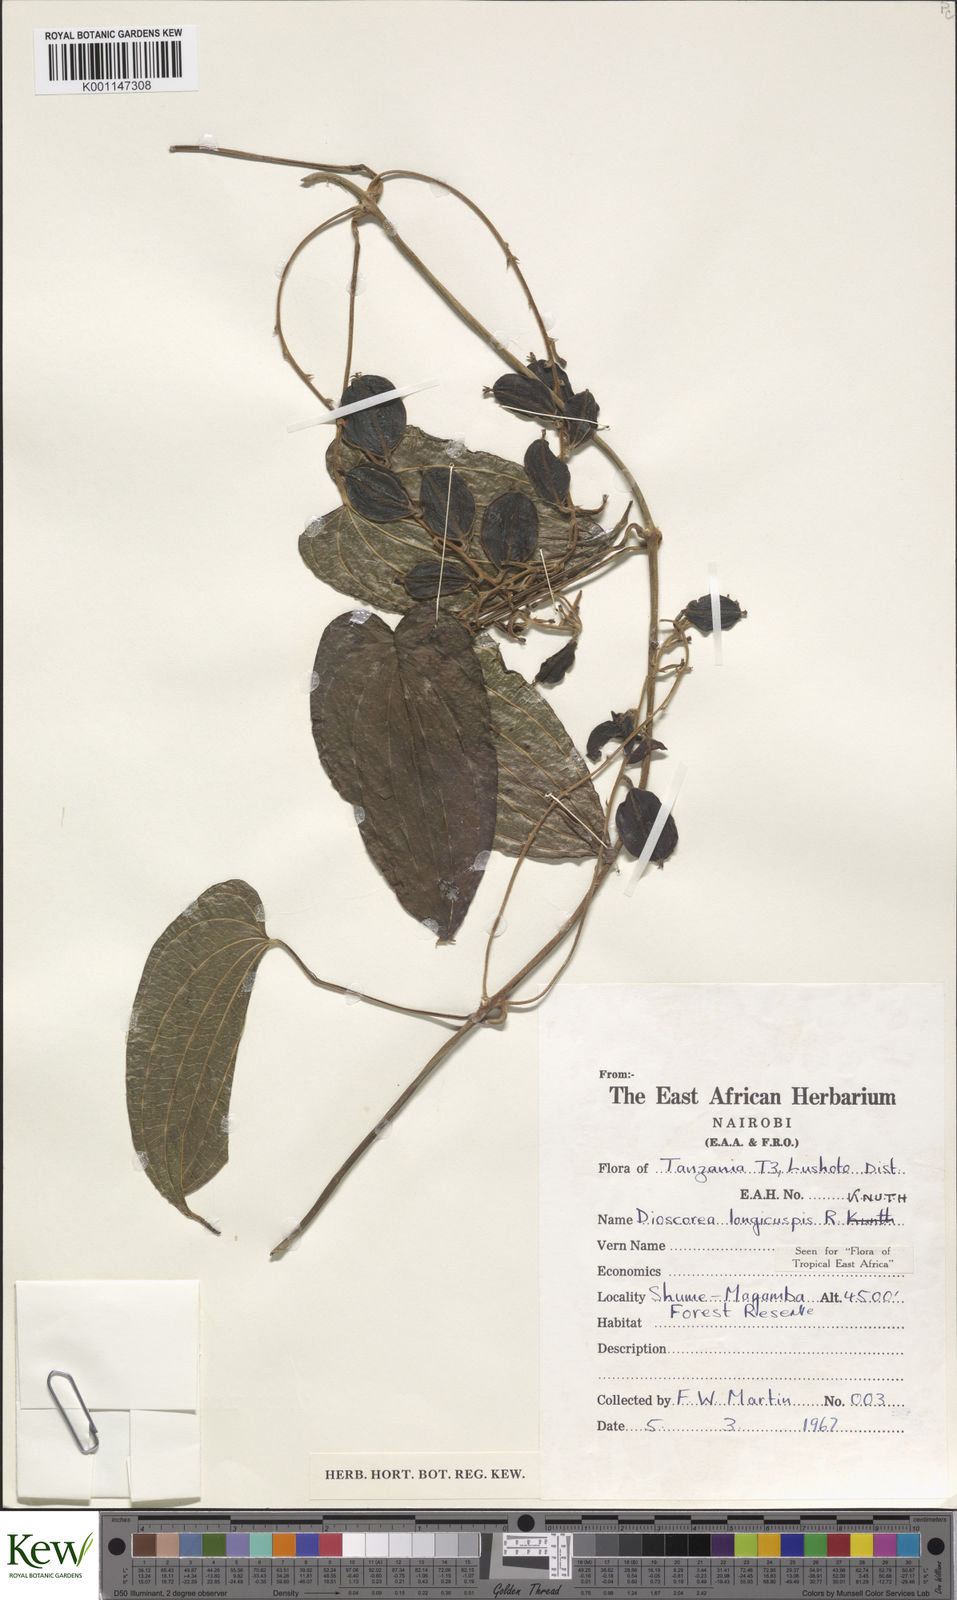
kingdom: Plantae
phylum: Tracheophyta
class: Liliopsida
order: Dioscoreales
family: Dioscoreaceae
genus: Dioscorea
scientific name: Dioscorea longicuspis
